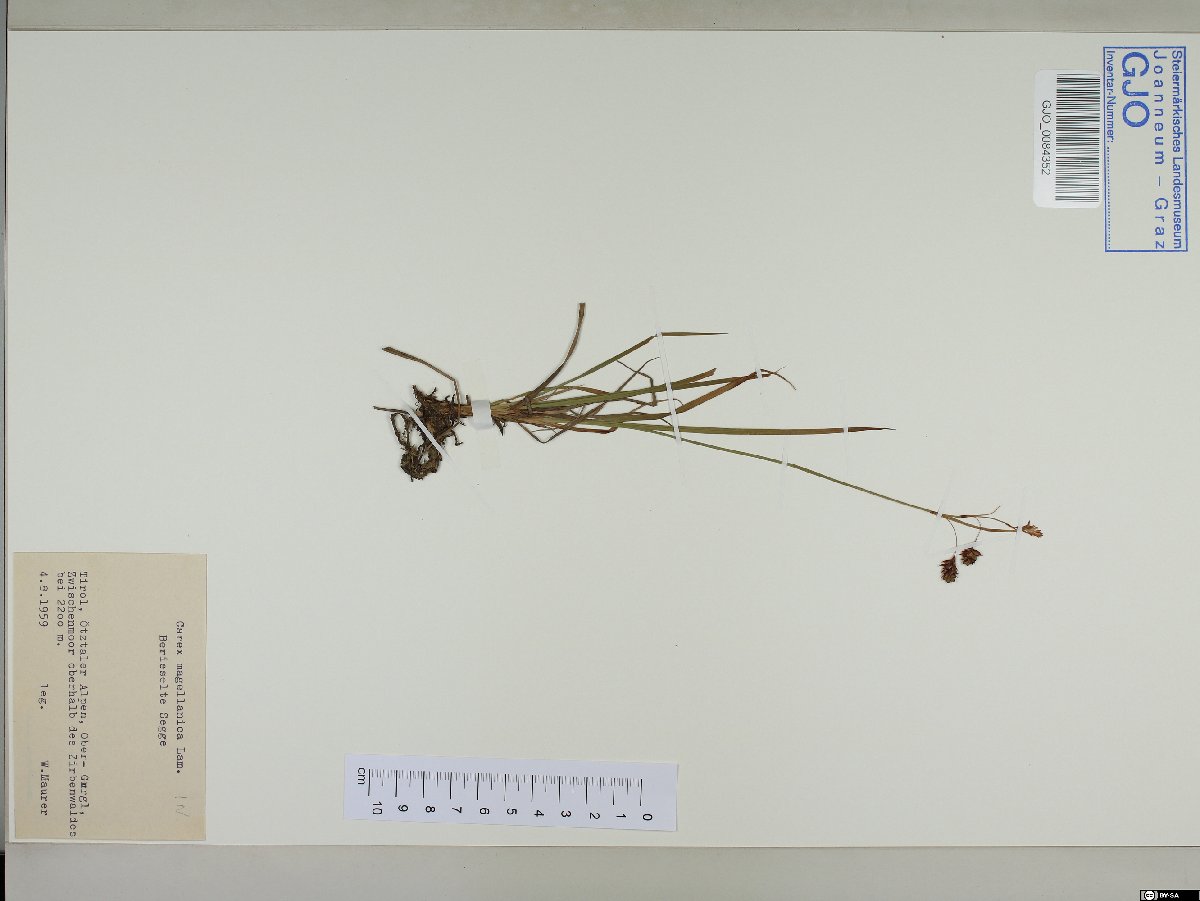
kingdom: Plantae
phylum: Tracheophyta
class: Liliopsida
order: Poales
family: Cyperaceae
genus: Carex
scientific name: Carex magellanica
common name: Bog sedge
